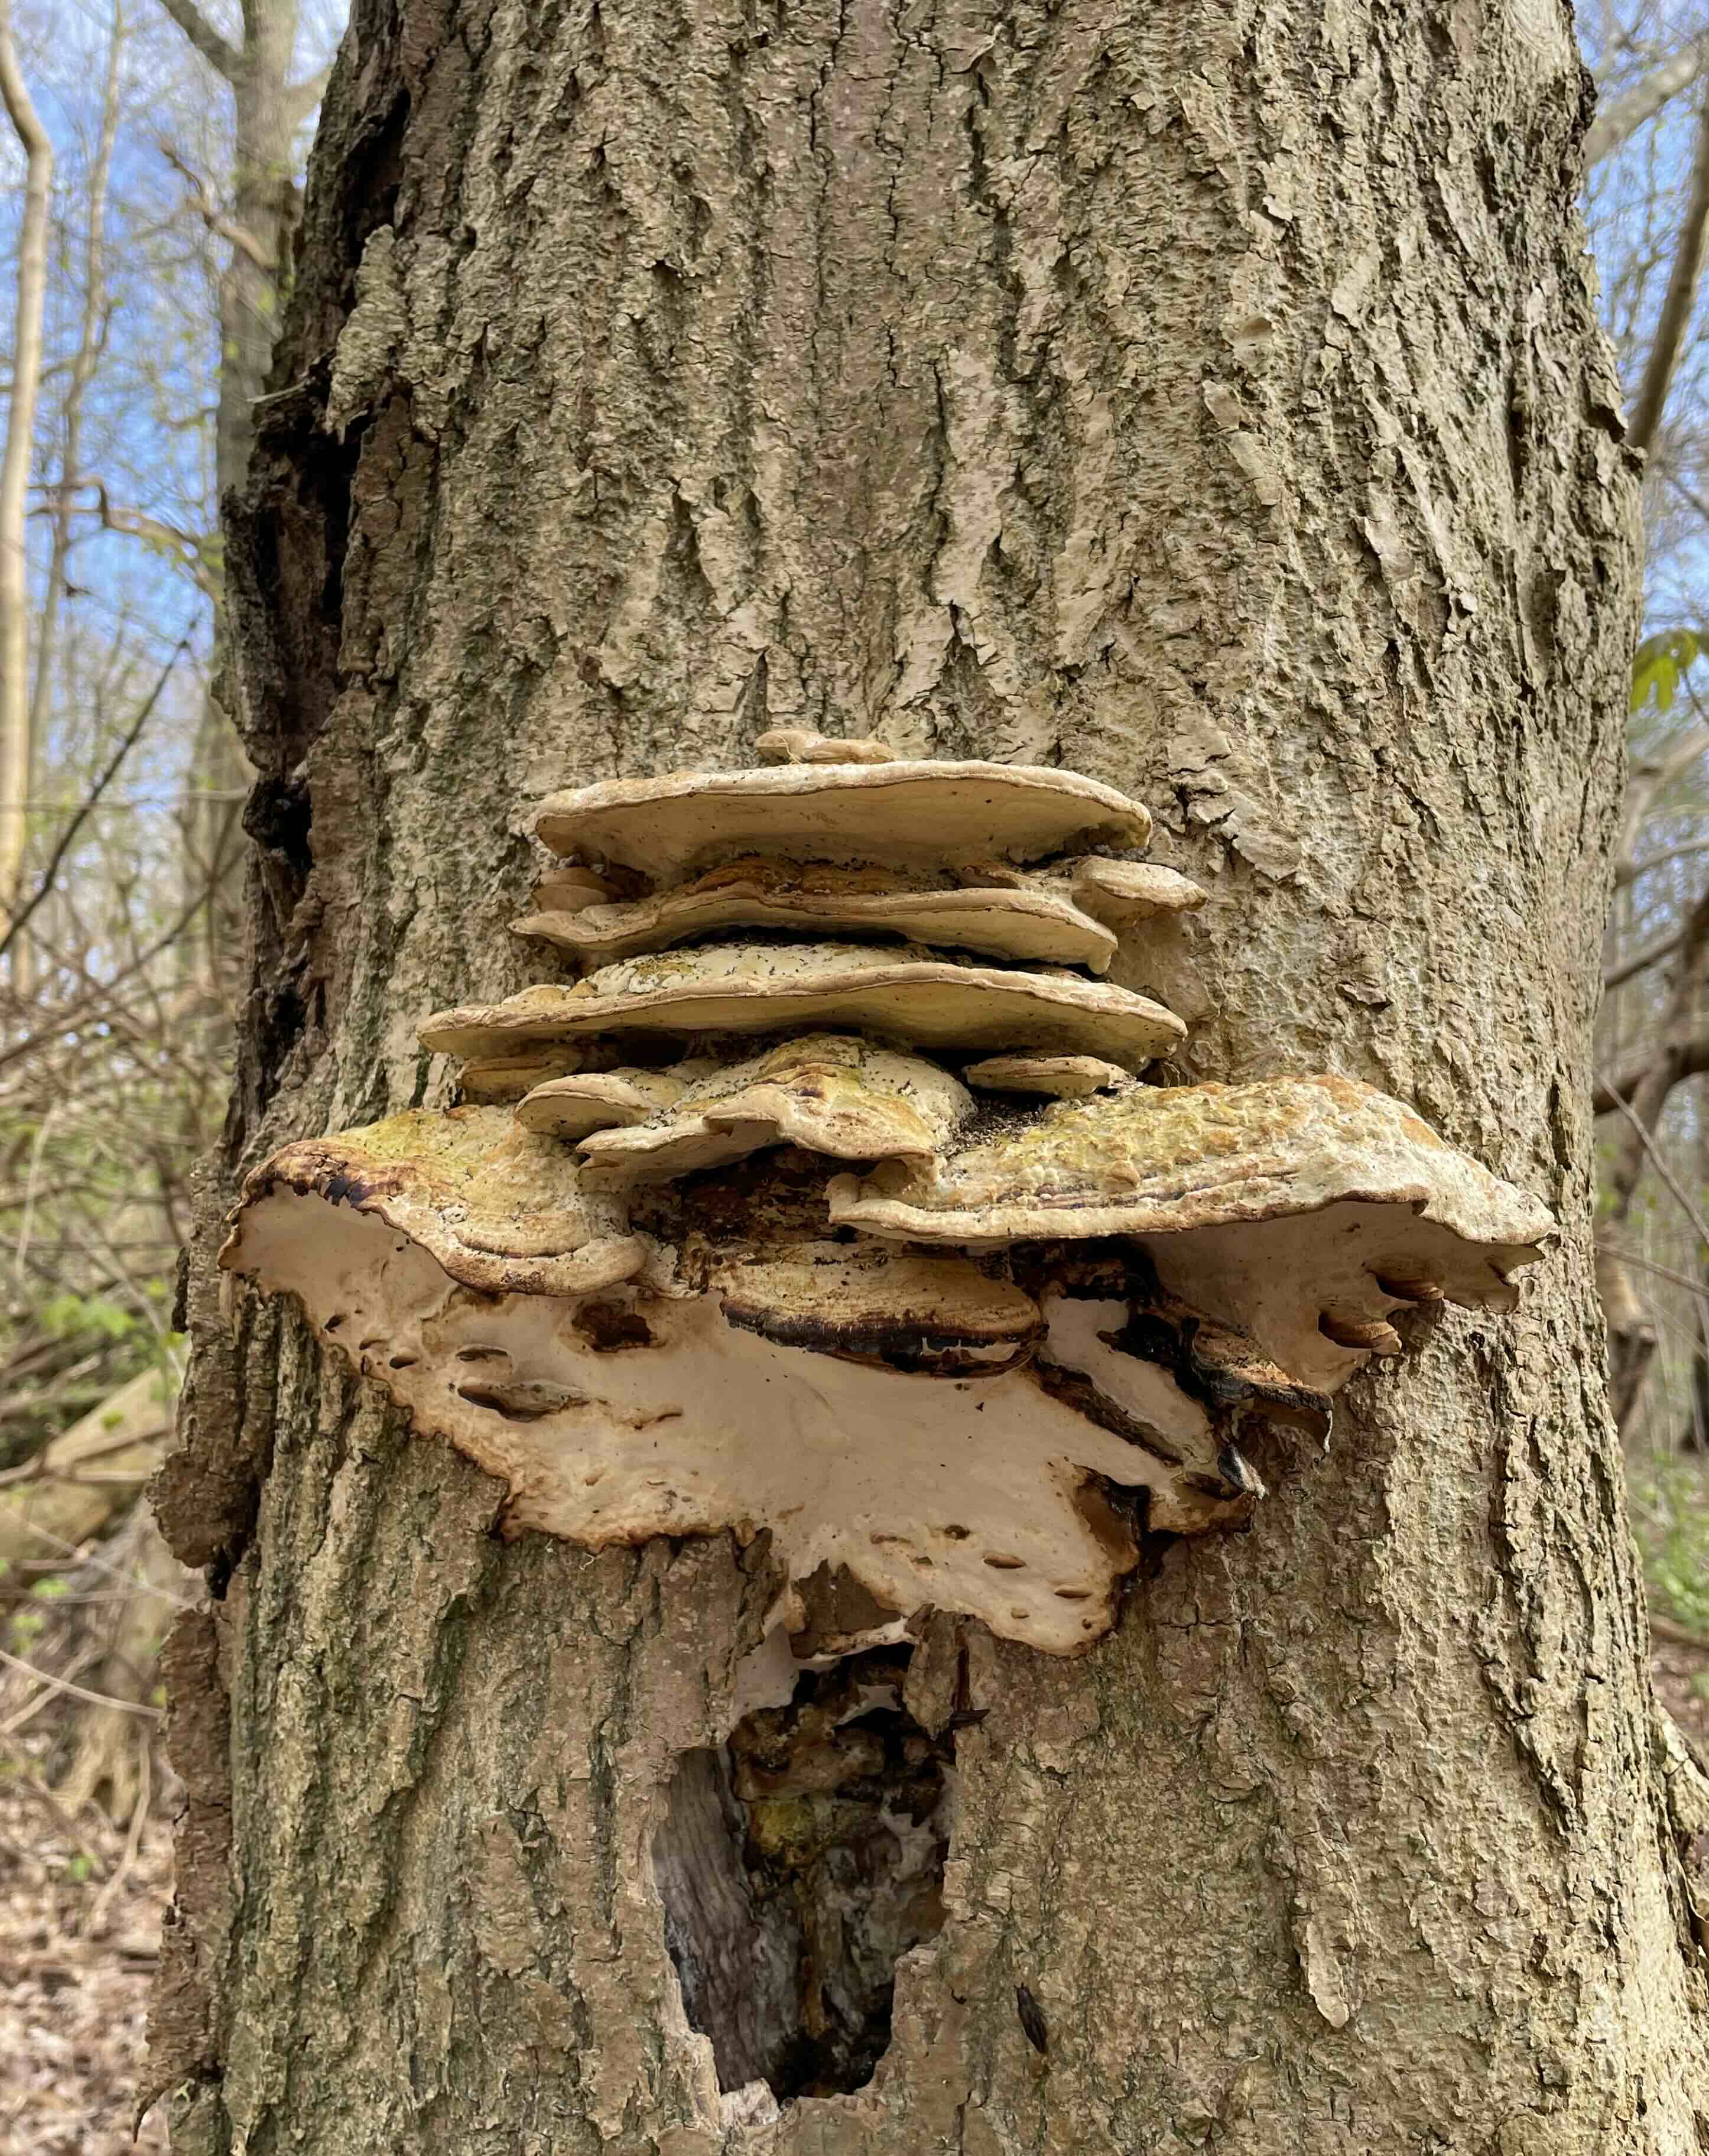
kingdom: Fungi
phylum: Basidiomycota
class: Agaricomycetes
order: Hymenochaetales
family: Oxyporaceae
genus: Oxyporus
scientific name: Oxyporus populinus
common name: sammenvokset trylleporesvamp
